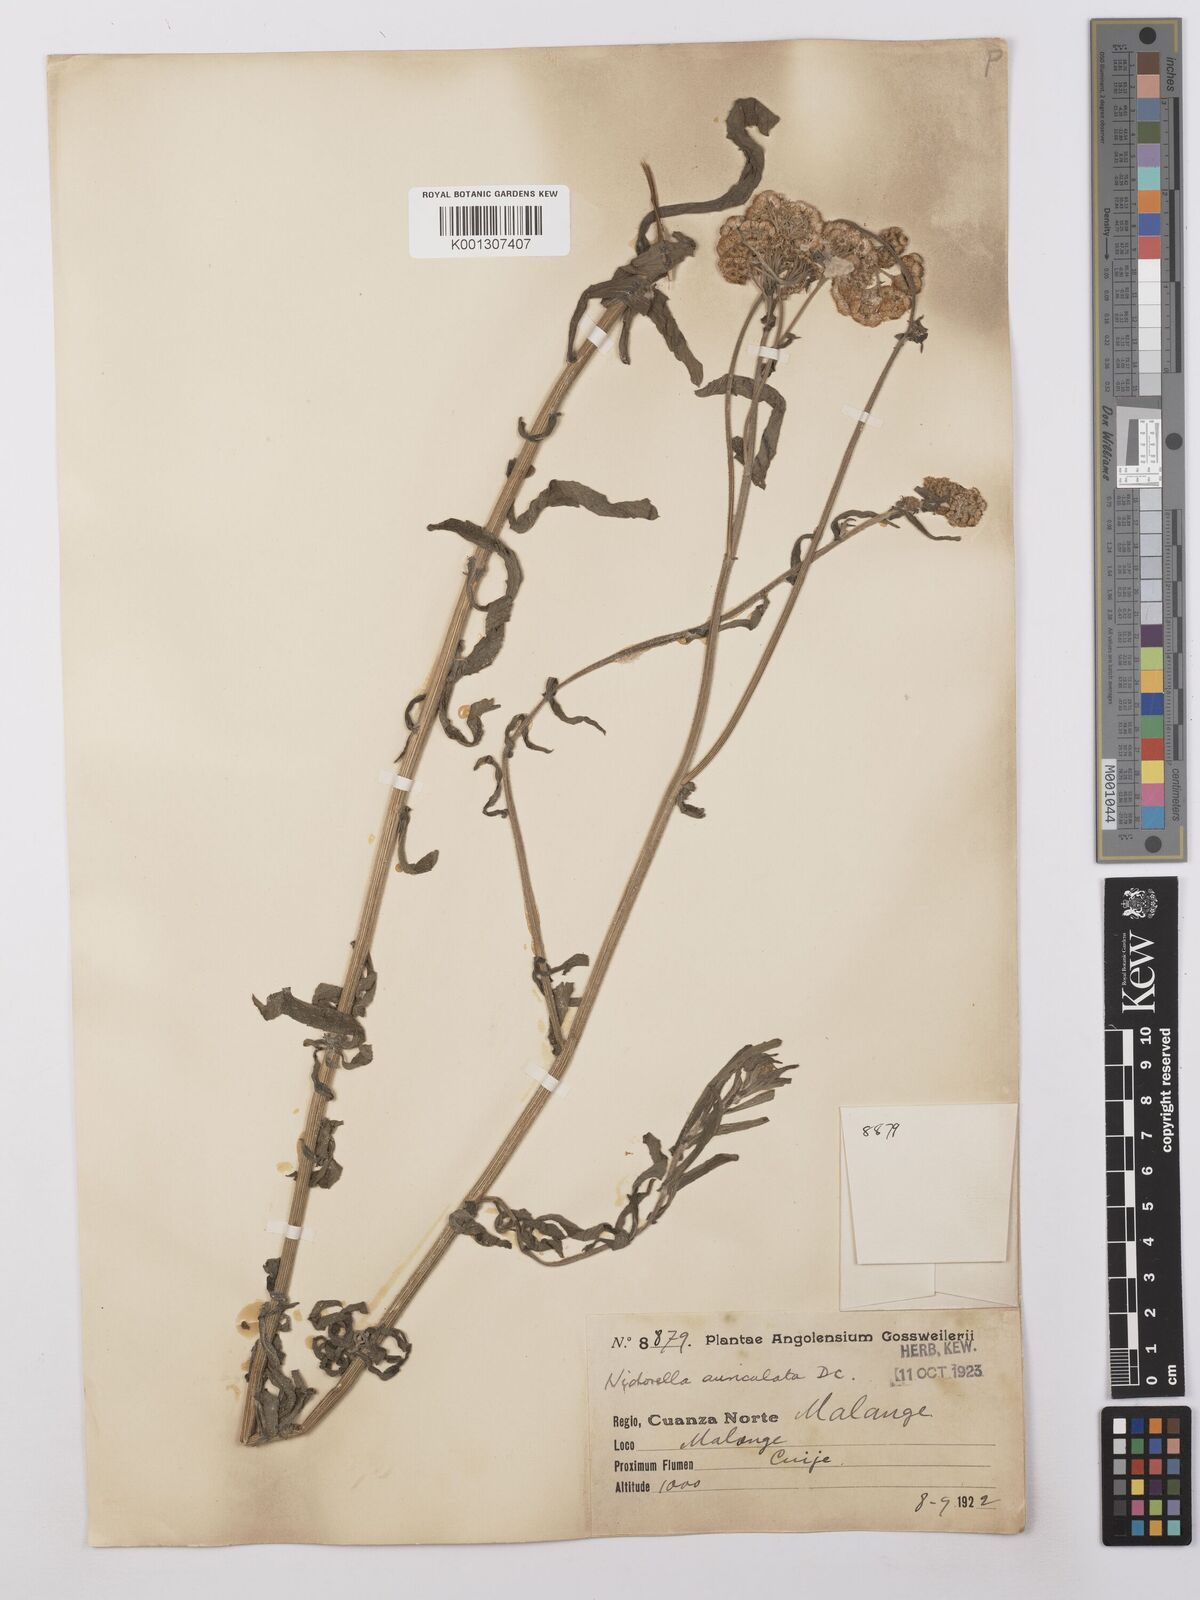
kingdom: Plantae
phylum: Tracheophyta
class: Magnoliopsida
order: Asterales
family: Asteraceae
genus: Nidorella
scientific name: Nidorella auriculata
